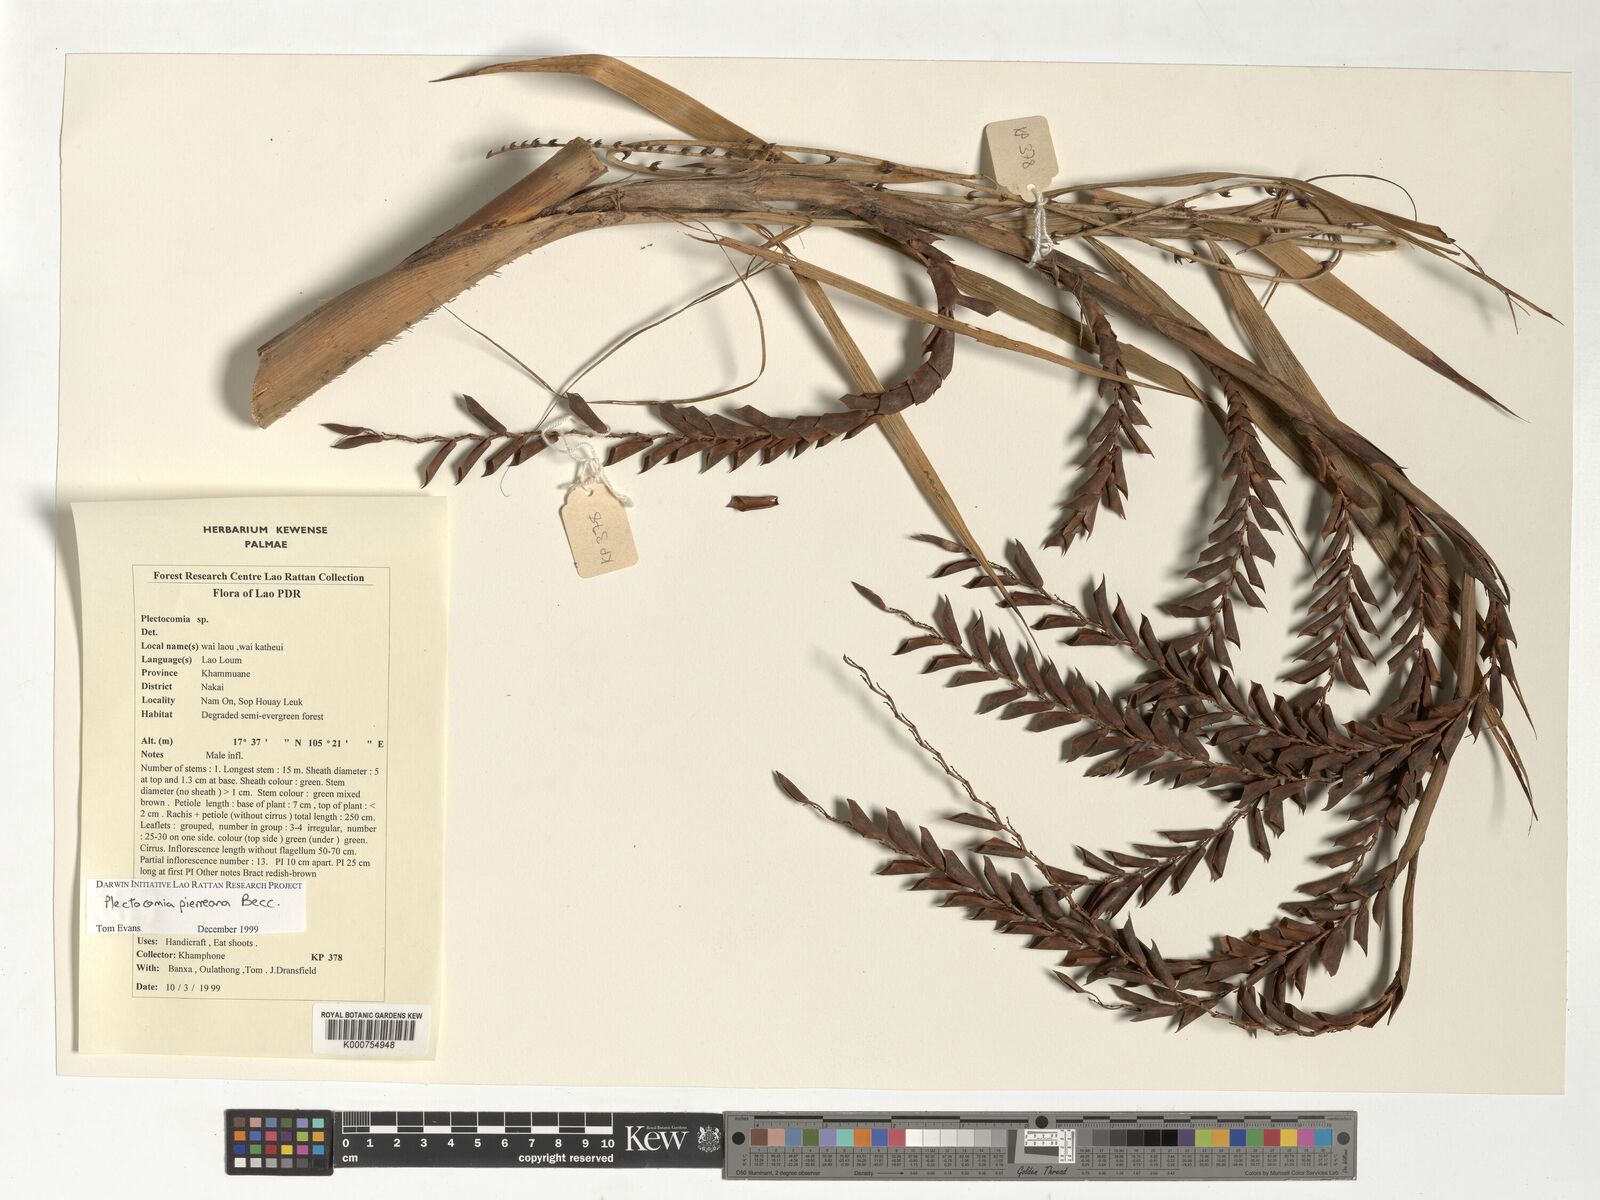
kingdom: Plantae
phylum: Tracheophyta
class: Liliopsida
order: Arecales
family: Arecaceae
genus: Plectocomia
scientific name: Plectocomia pierreana
